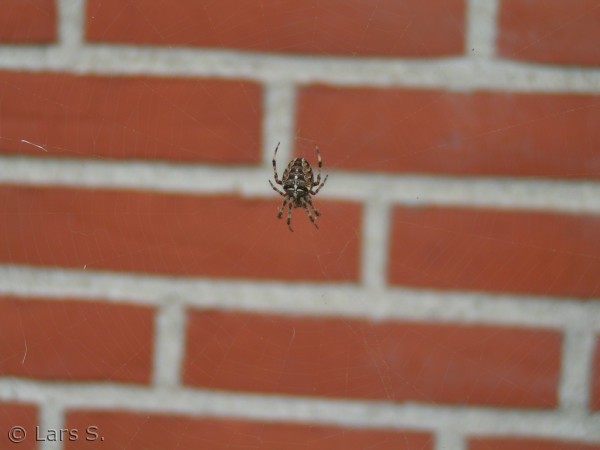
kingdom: Animalia
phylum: Arthropoda
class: Arachnida
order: Araneae
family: Araneidae
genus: Araneus
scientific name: Araneus diadematus
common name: Korsedderkop
